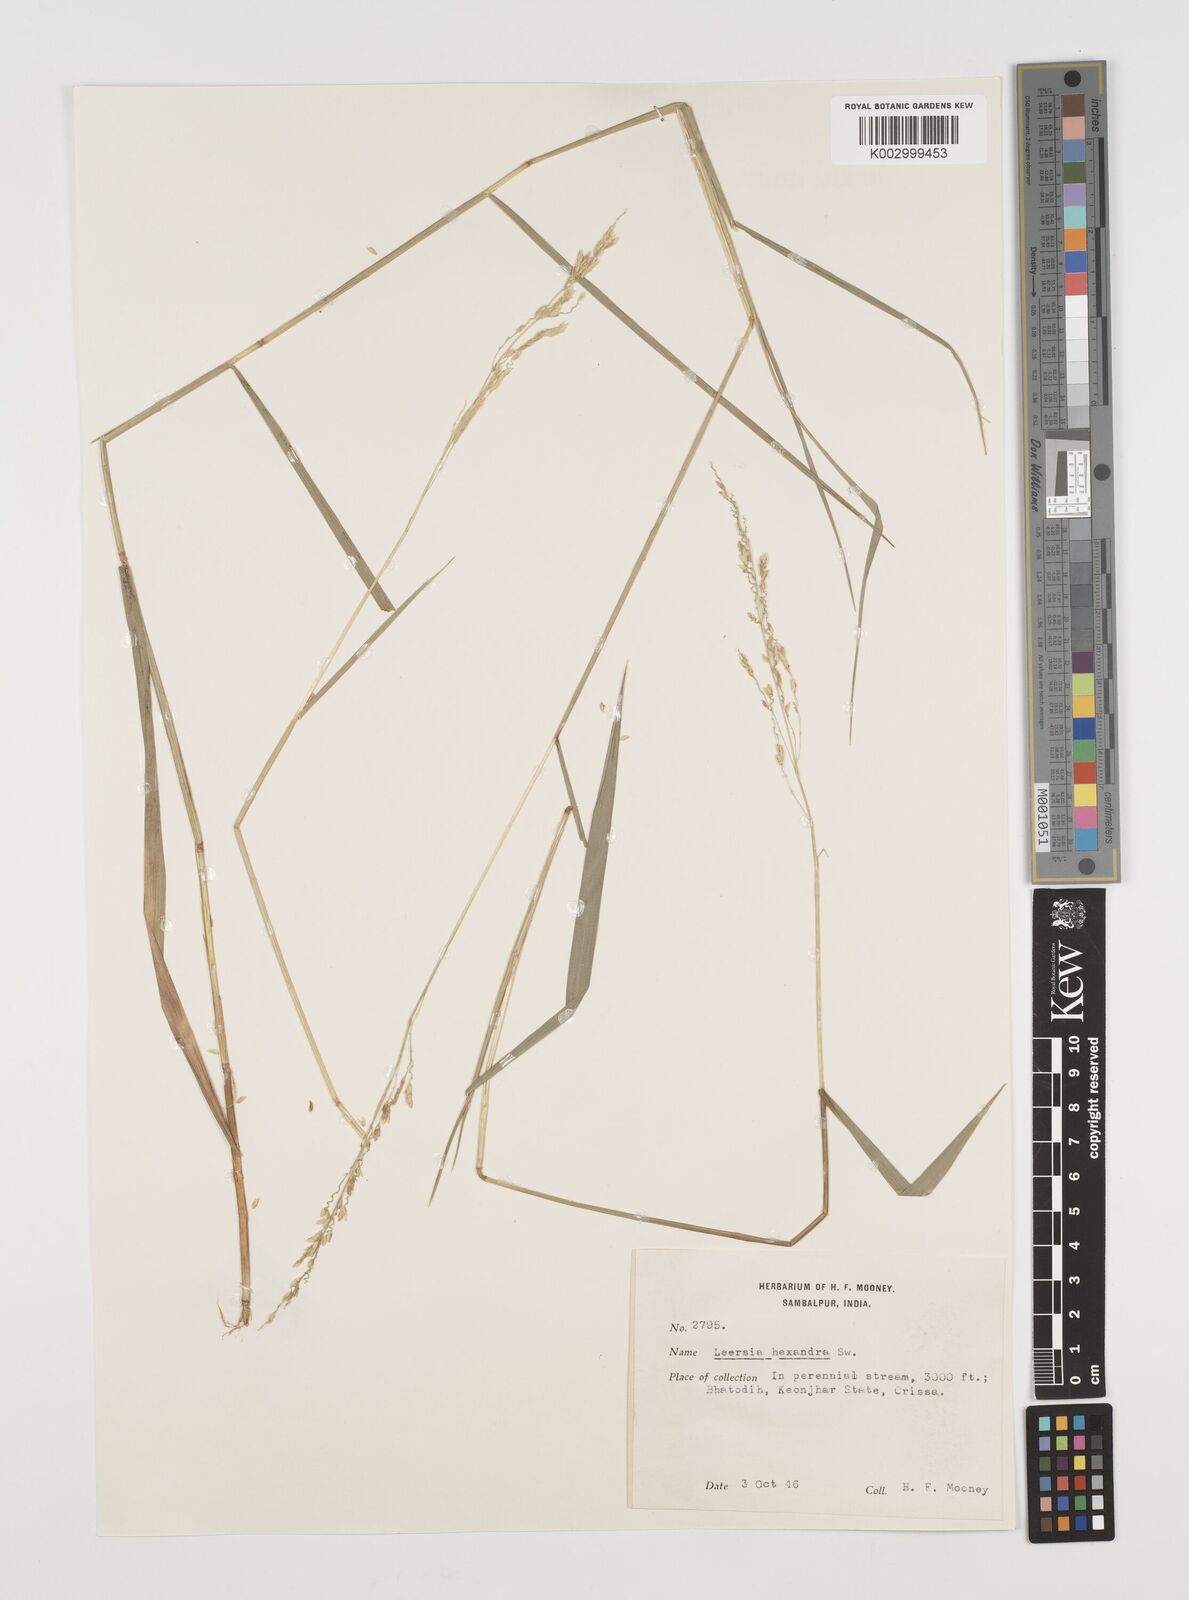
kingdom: Plantae
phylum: Tracheophyta
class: Liliopsida
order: Poales
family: Poaceae
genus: Leersia
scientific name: Leersia hexandra
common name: Southern cut grass
